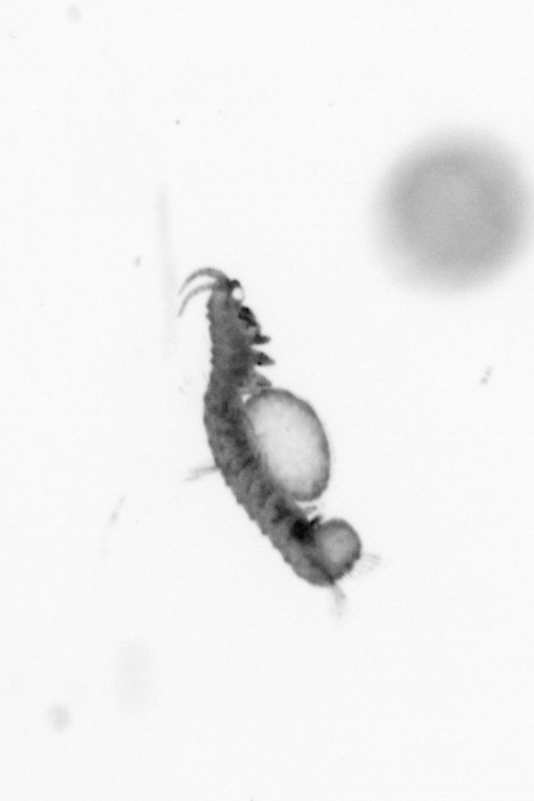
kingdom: Animalia
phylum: Annelida
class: Polychaeta
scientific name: Polychaeta
